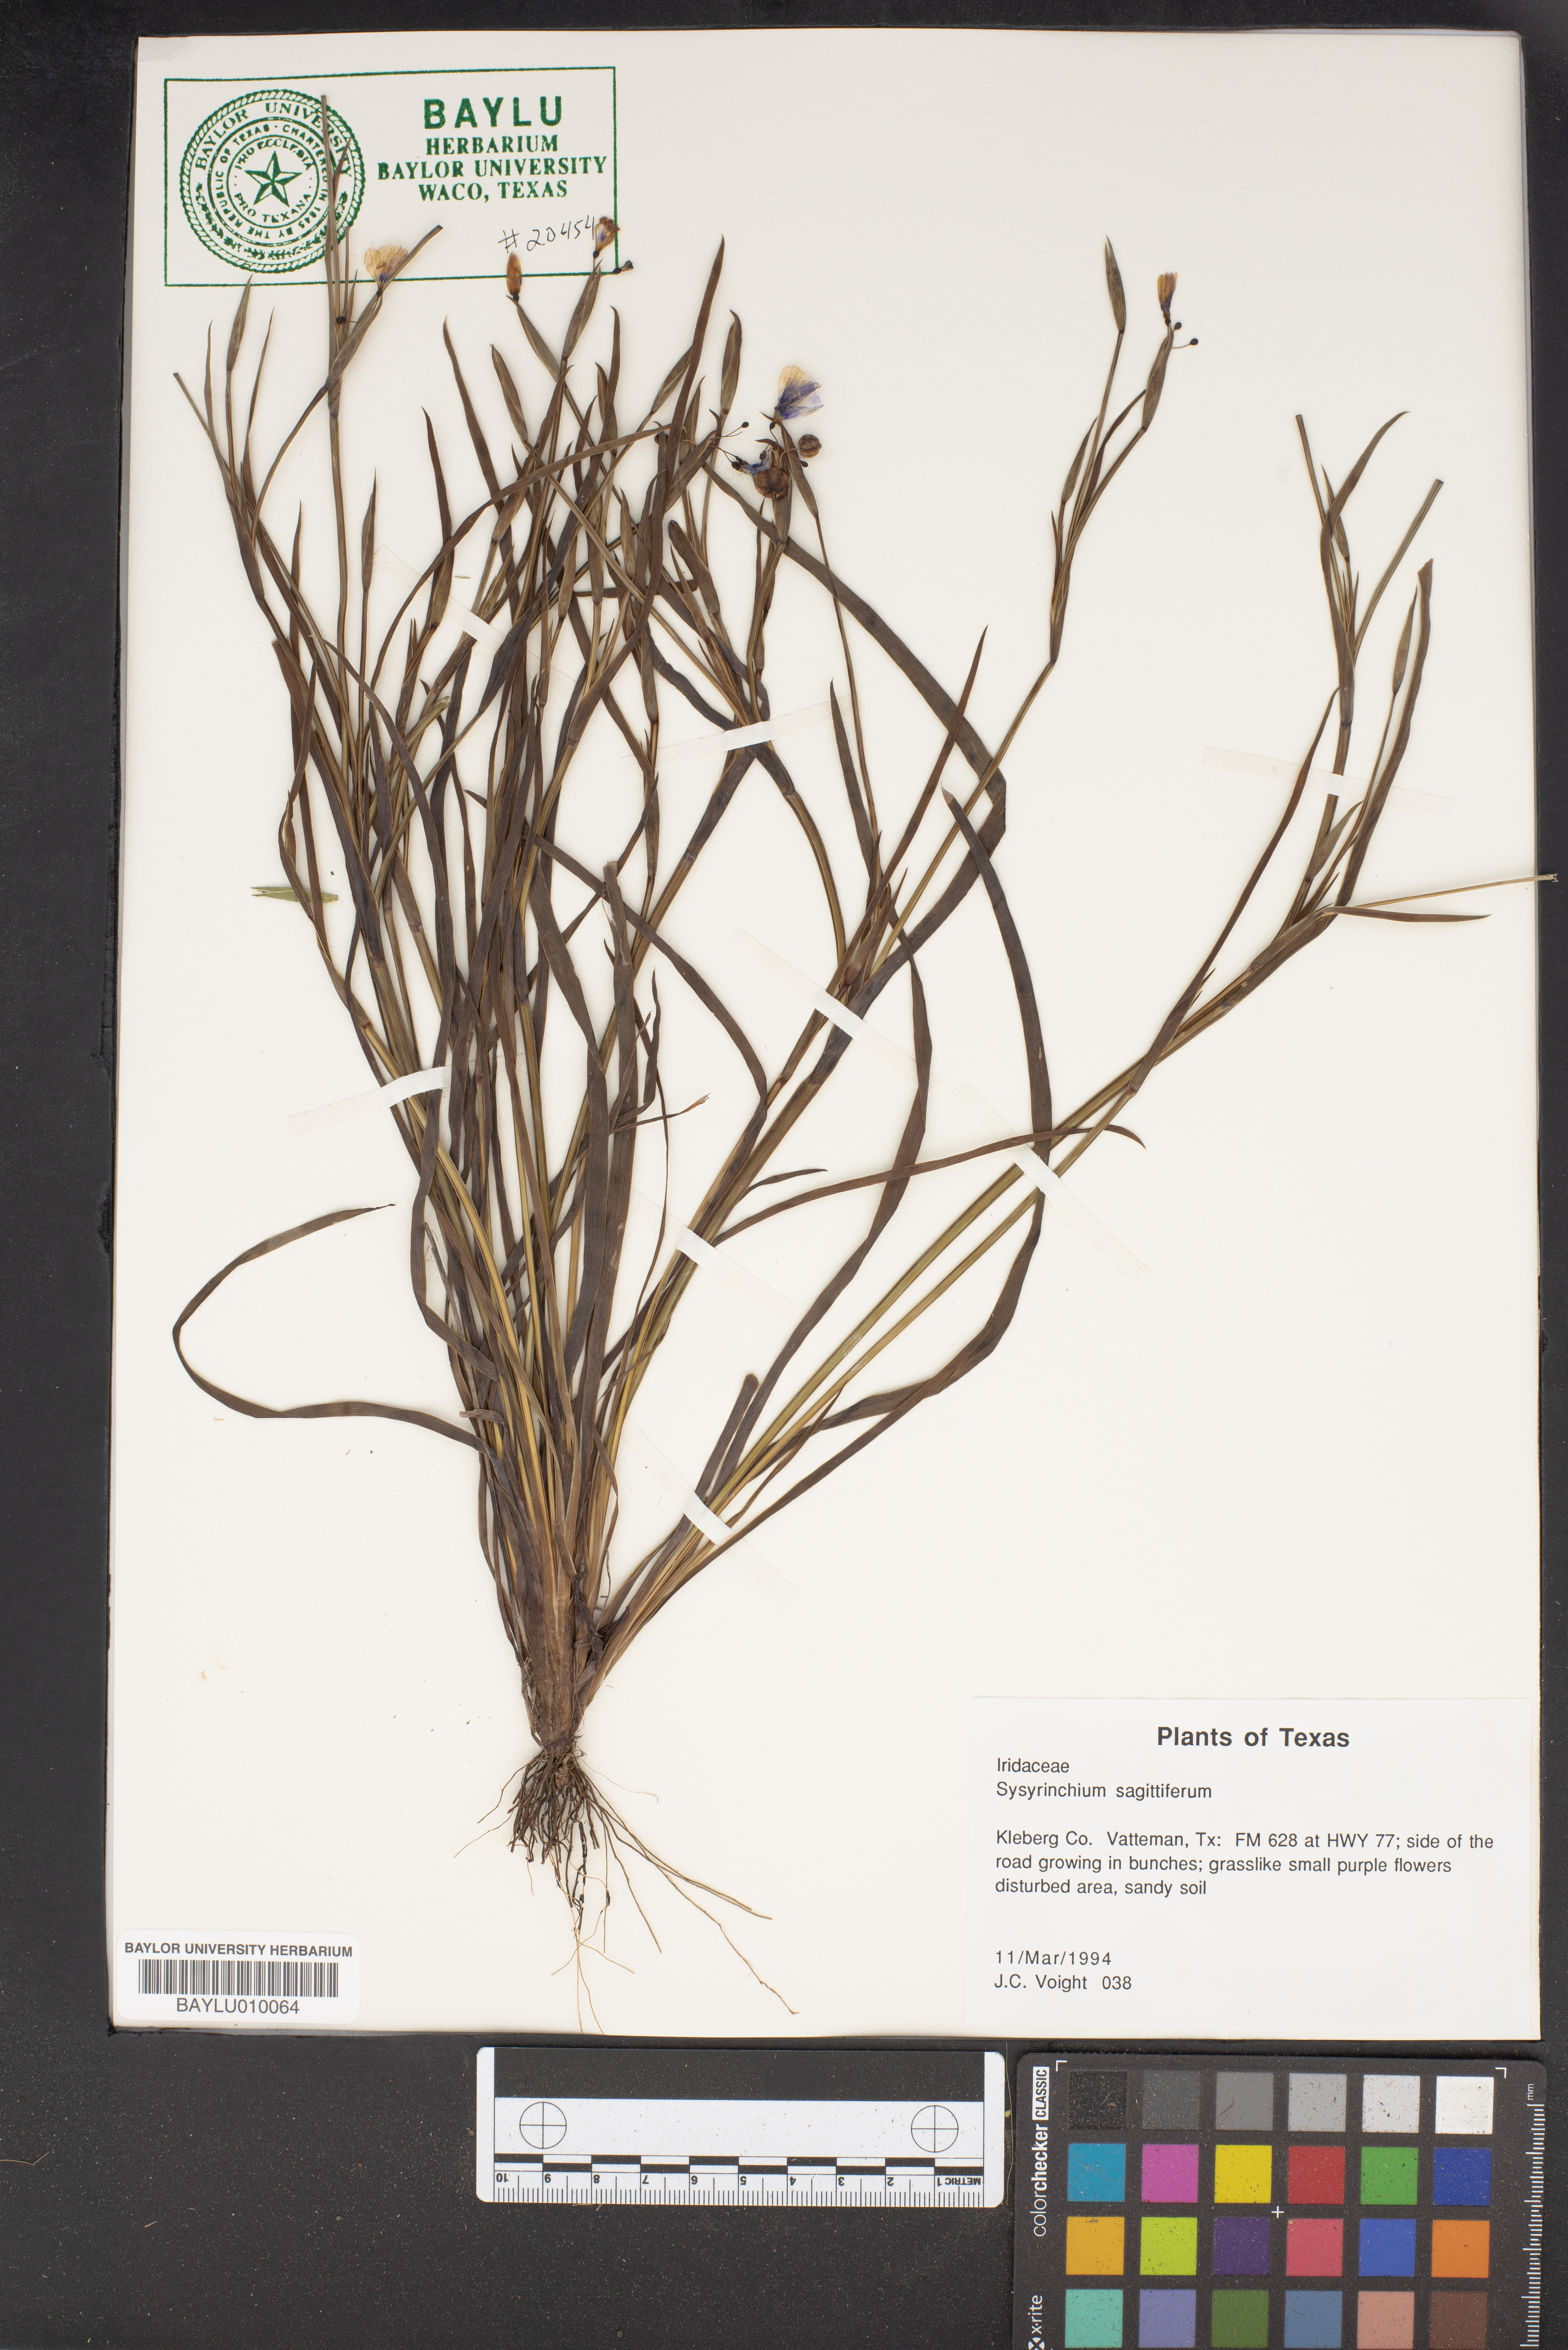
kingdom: Plantae
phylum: Tracheophyta
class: Liliopsida
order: Asparagales
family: Iridaceae
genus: Sisyrinchium
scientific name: Sisyrinchium sagittiferum
